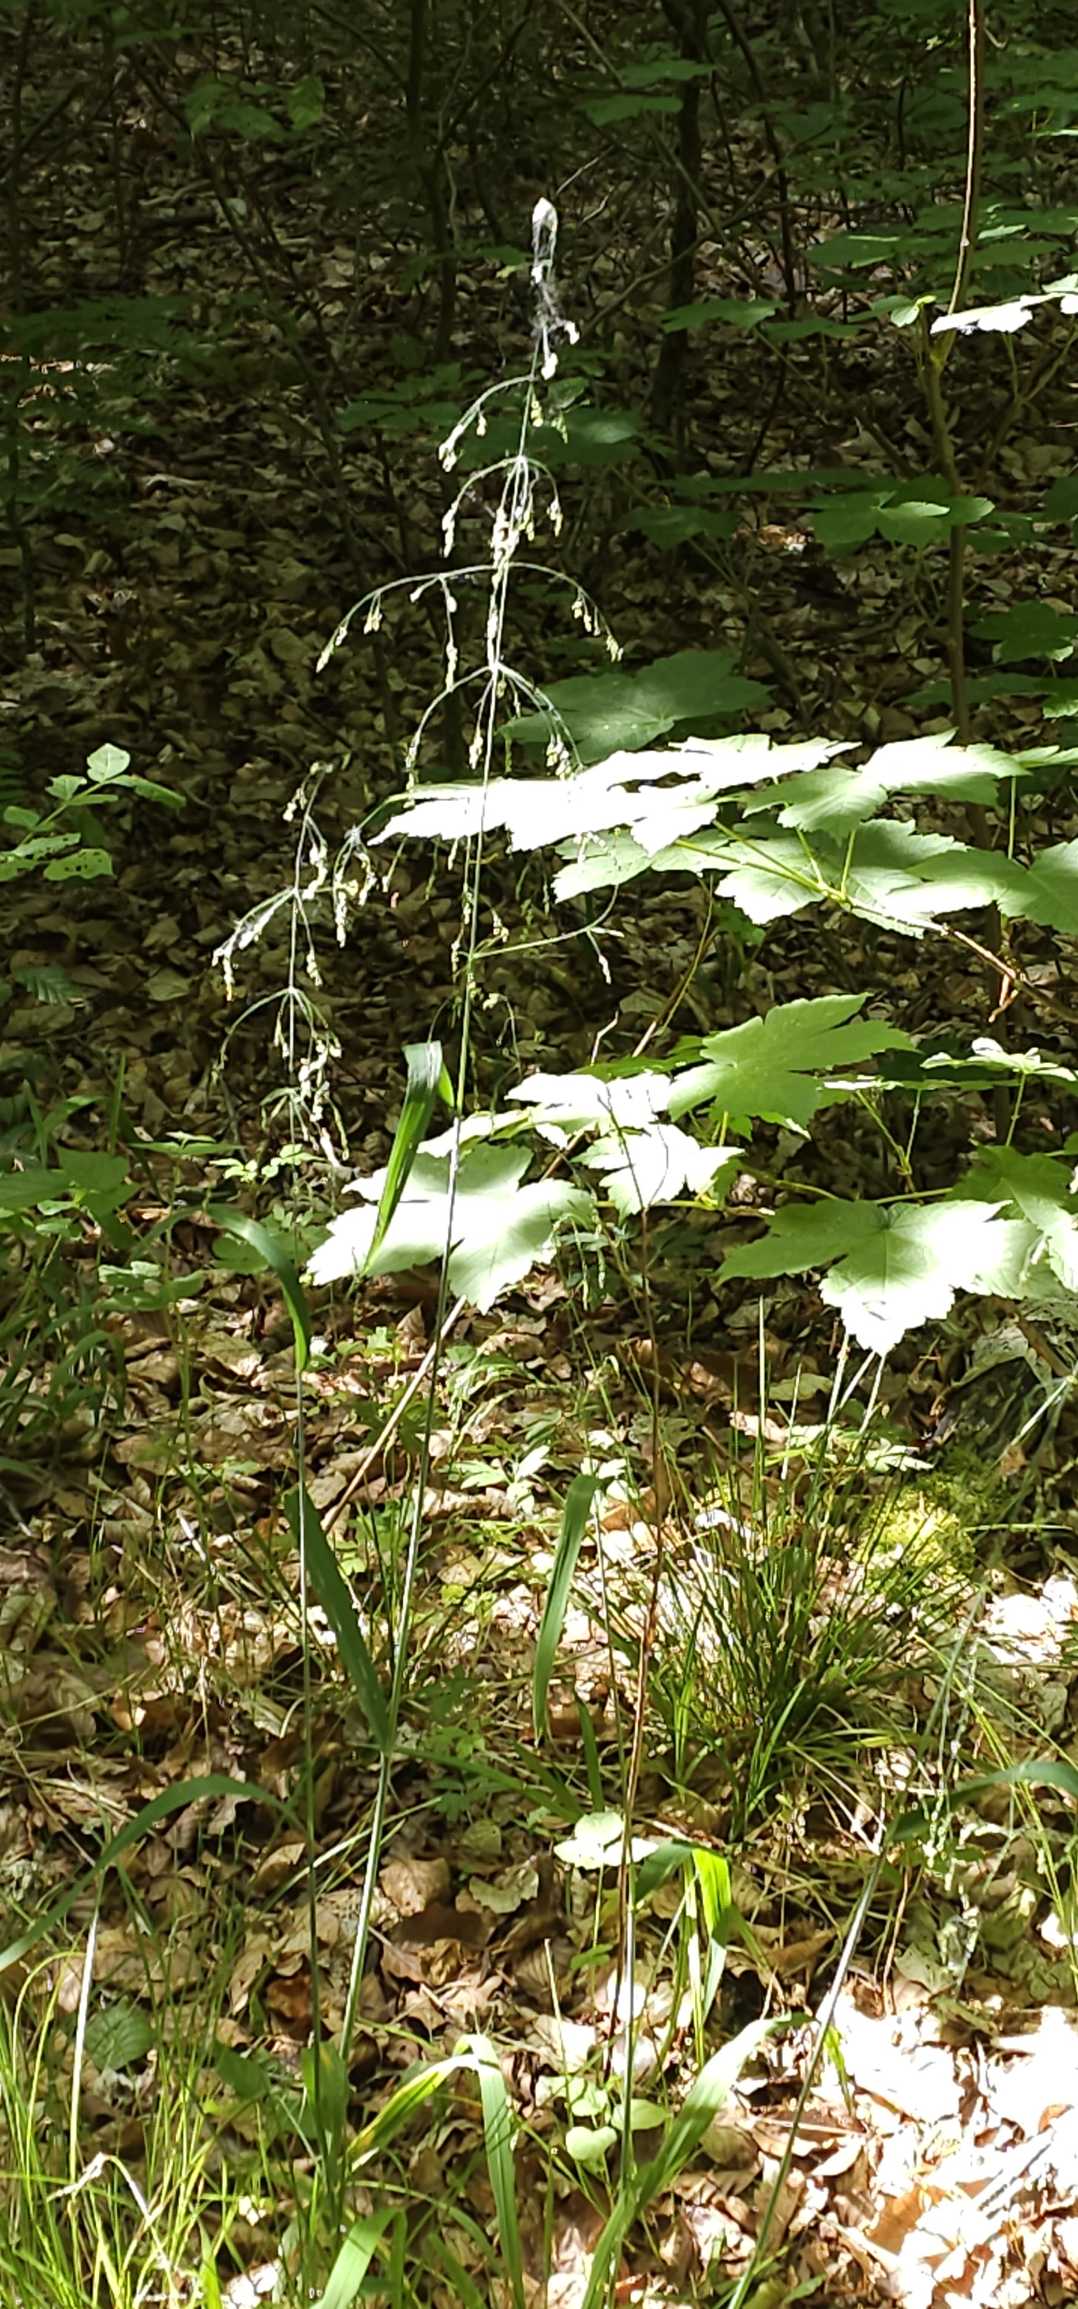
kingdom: Plantae
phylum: Tracheophyta
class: Liliopsida
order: Poales
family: Poaceae
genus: Milium
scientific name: Milium effusum
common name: Miliegræs
